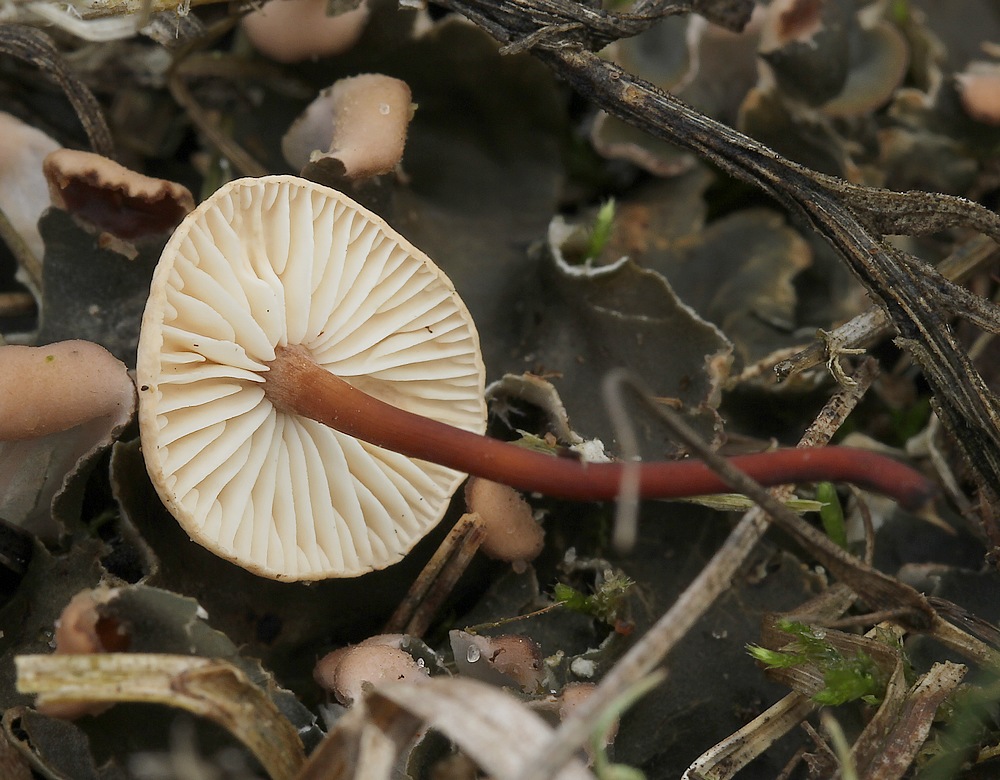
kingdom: Fungi
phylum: Basidiomycota
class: Agaricomycetes
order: Agaricales
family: Omphalotaceae
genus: Mycetinis
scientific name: Mycetinis scorodonius
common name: lille løghat
